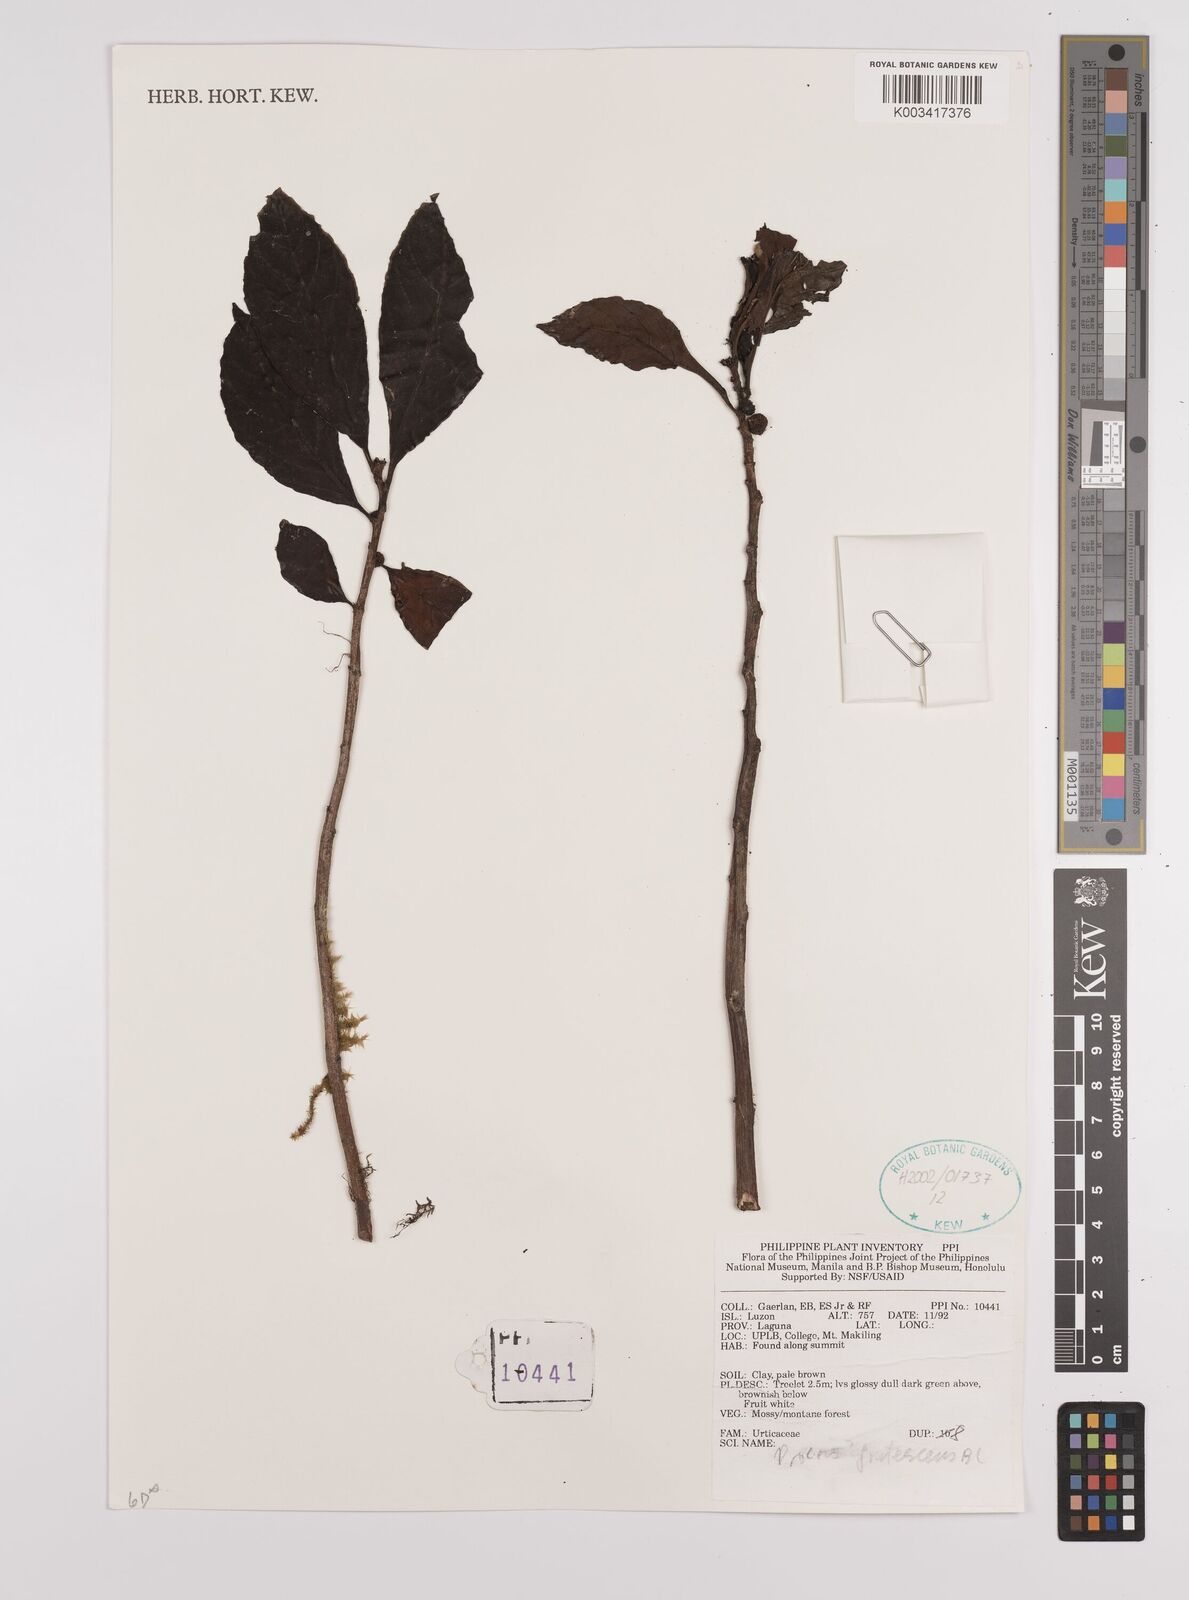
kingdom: Plantae
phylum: Tracheophyta
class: Magnoliopsida
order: Rosales
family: Urticaceae
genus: Procris
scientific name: Procris frutescens
